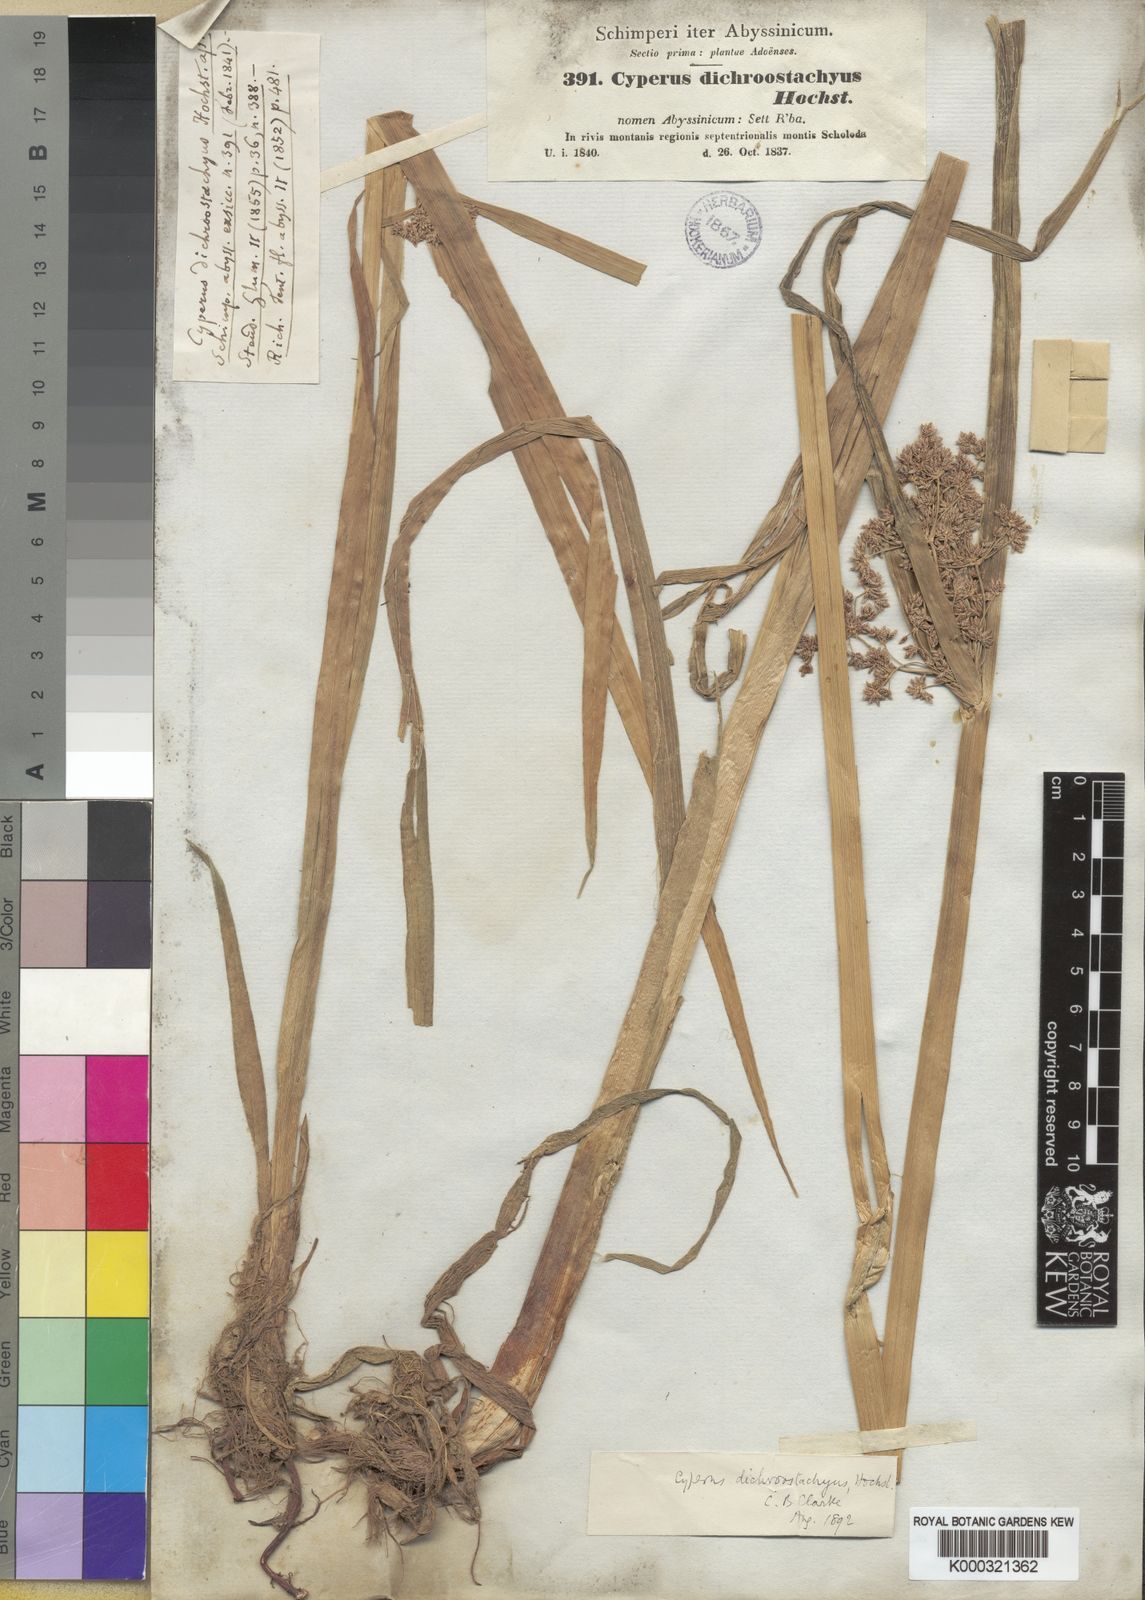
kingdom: Plantae
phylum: Tracheophyta
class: Liliopsida
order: Poales
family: Cyperaceae
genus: Cyperus
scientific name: Cyperus dichrostachyus
